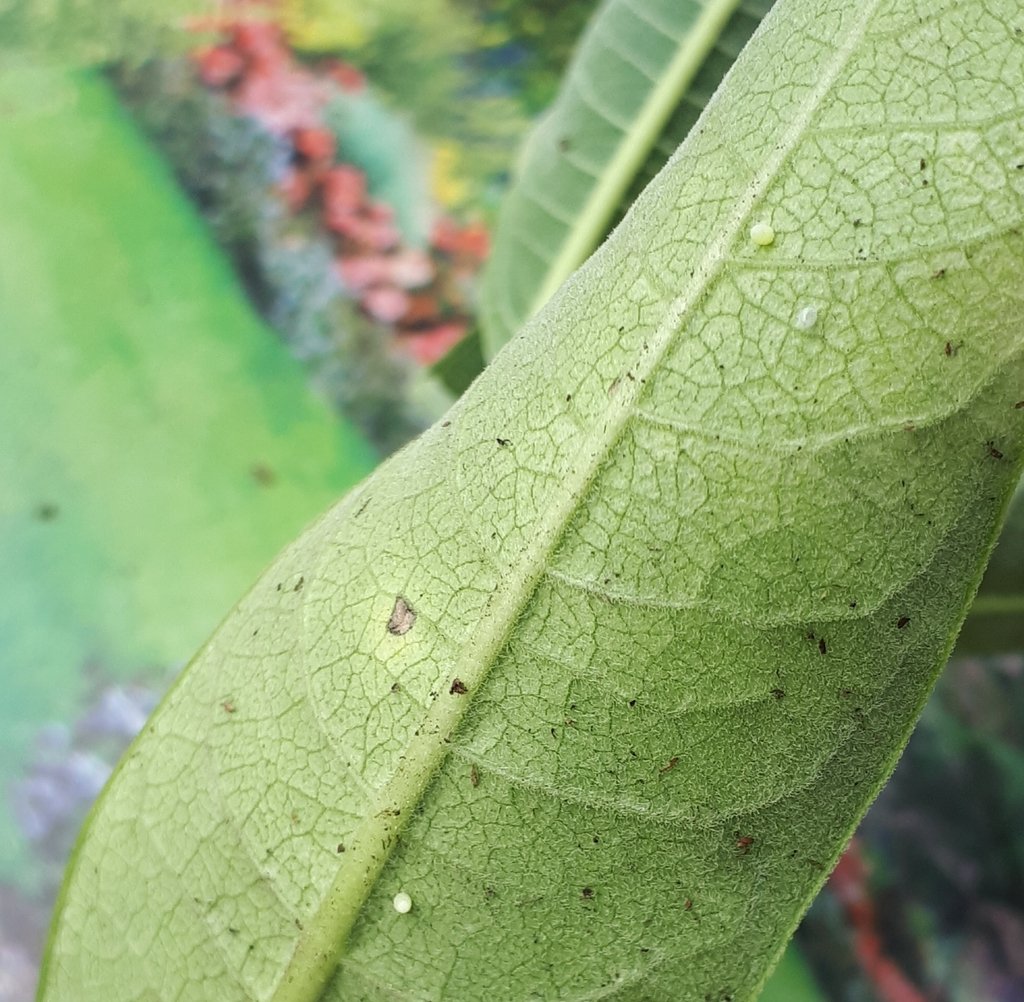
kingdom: Animalia
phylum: Arthropoda
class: Insecta
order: Lepidoptera
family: Nymphalidae
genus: Danaus
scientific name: Danaus plexippus
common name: Monarch
